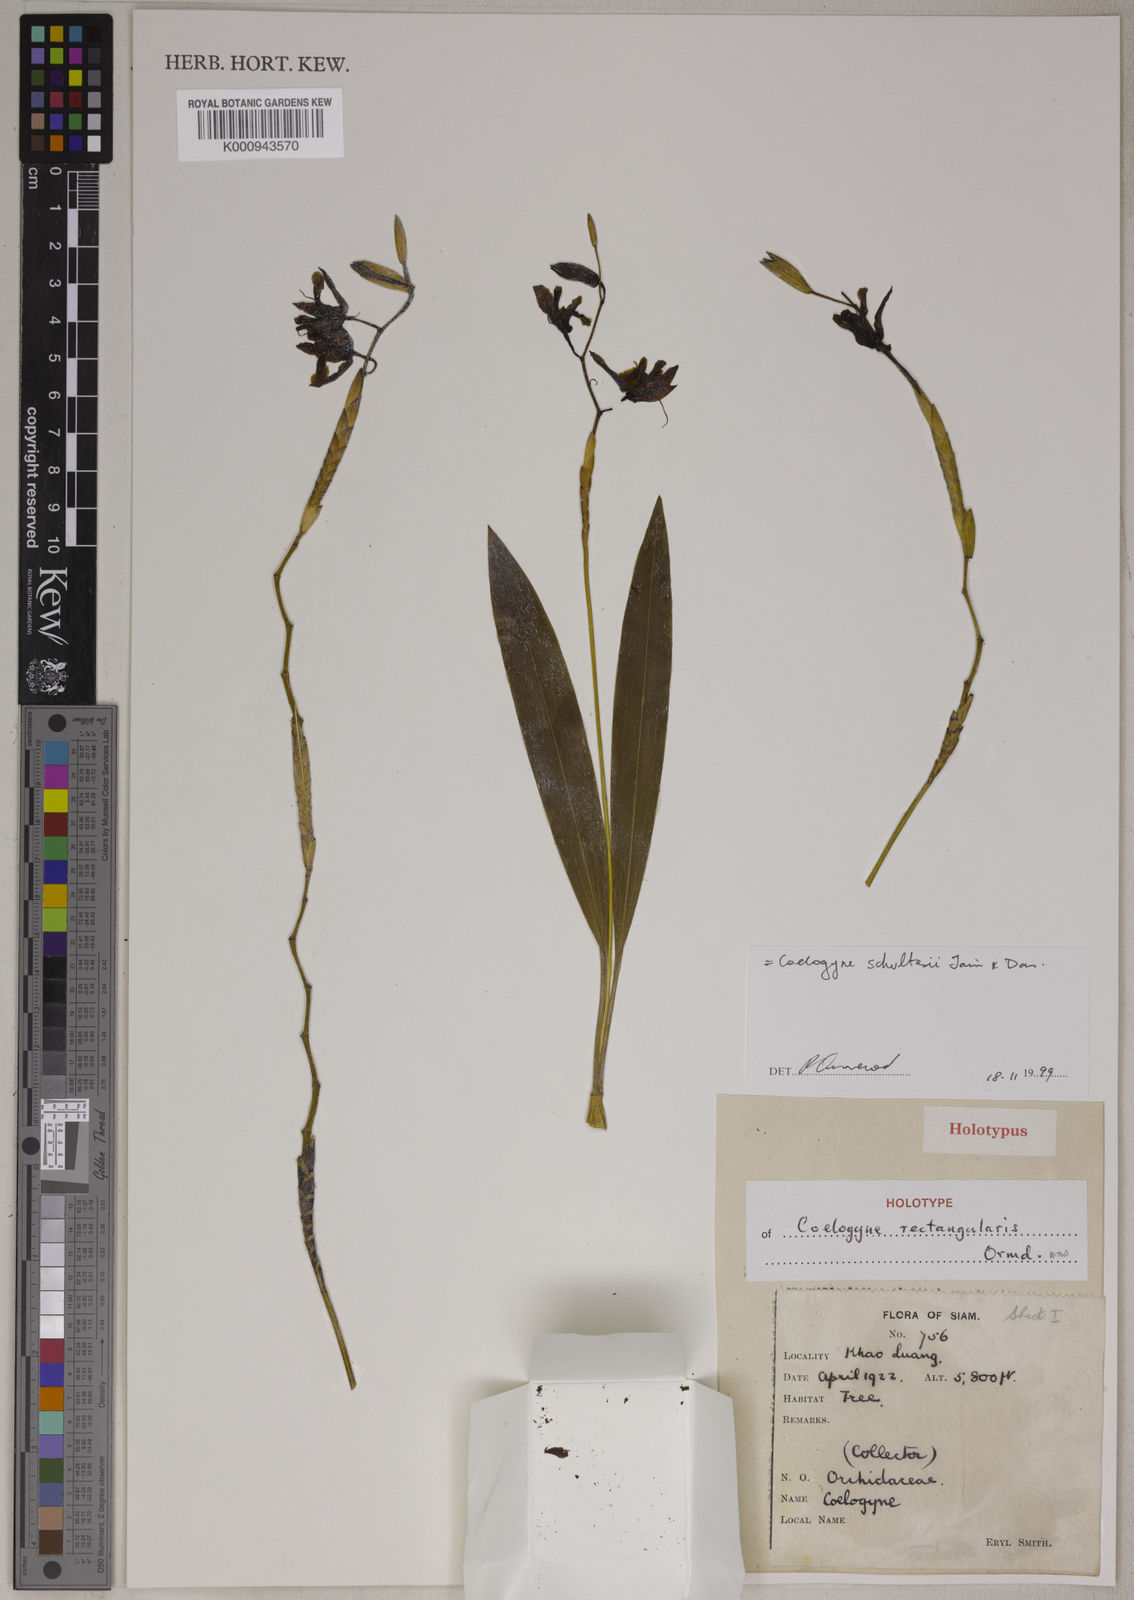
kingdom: Plantae
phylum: Tracheophyta
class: Liliopsida
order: Asparagales
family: Orchidaceae
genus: Coelogyne
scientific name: Coelogyne schultesii
